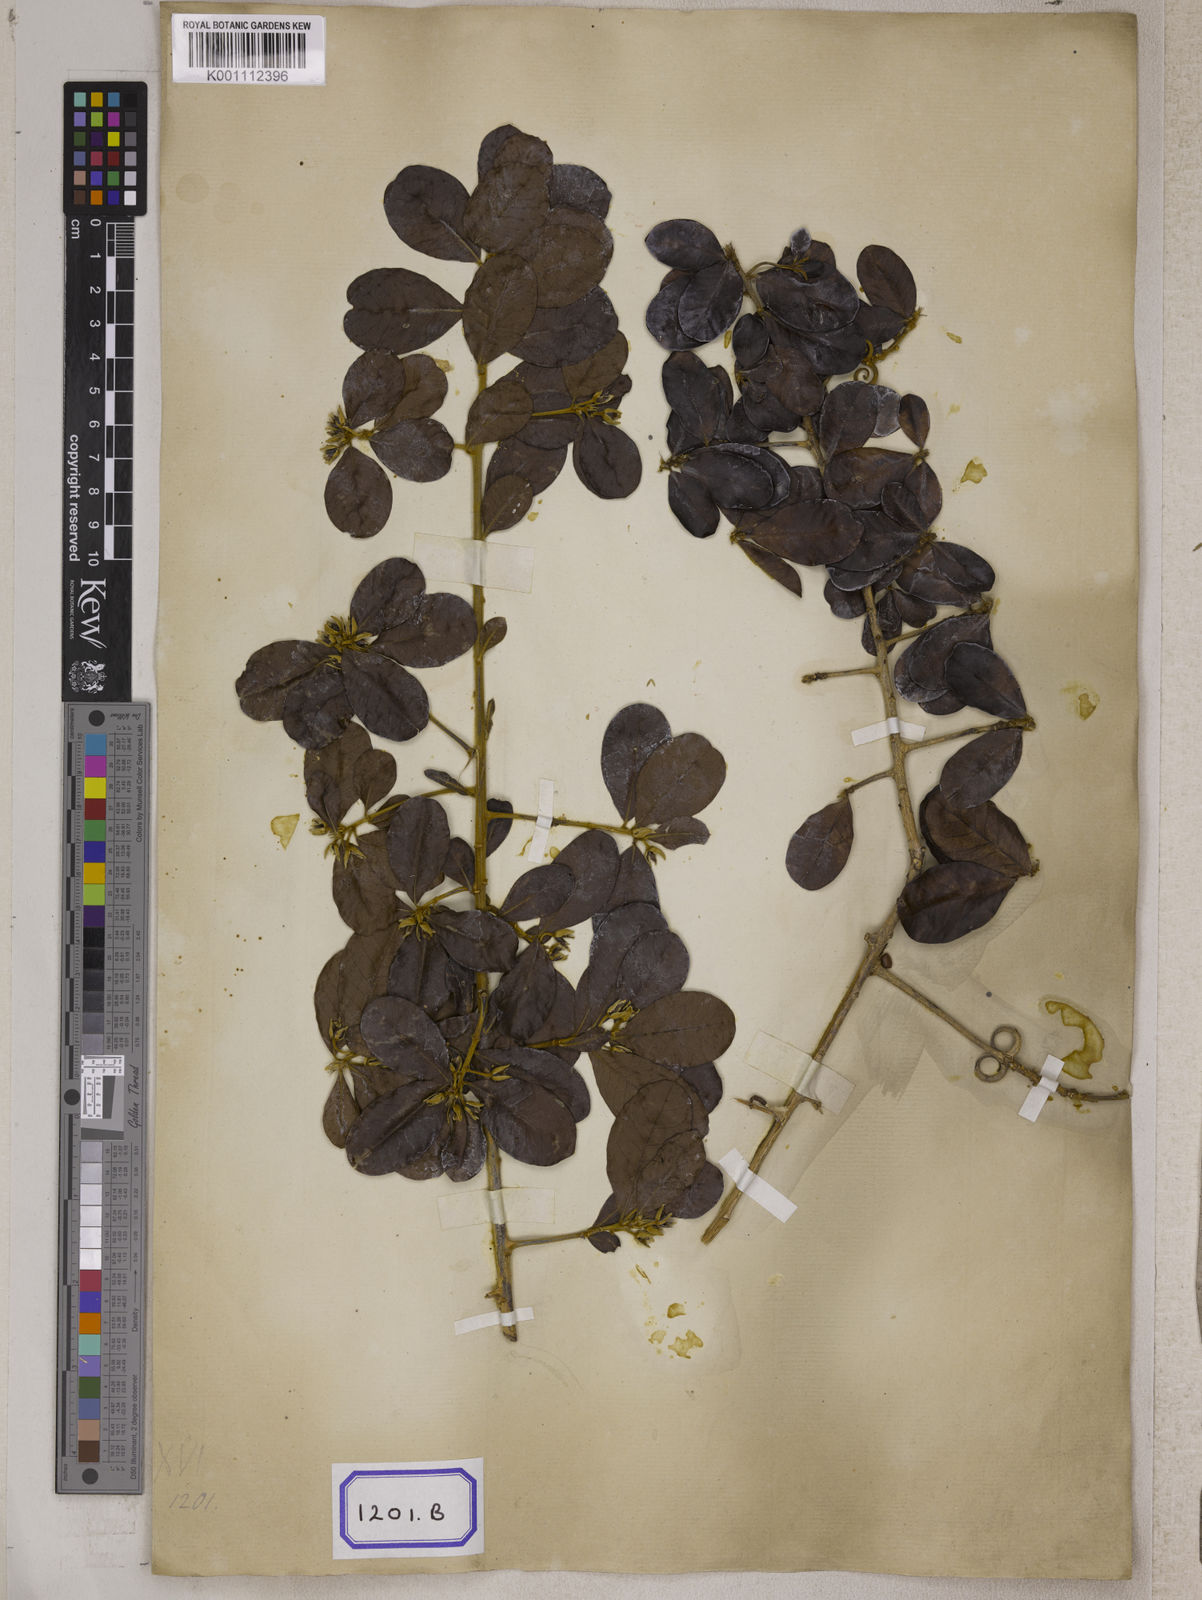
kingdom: Plantae
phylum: Tracheophyta
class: Magnoliopsida
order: Malpighiales
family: Linaceae
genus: Hugonia
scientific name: Hugonia mystax
